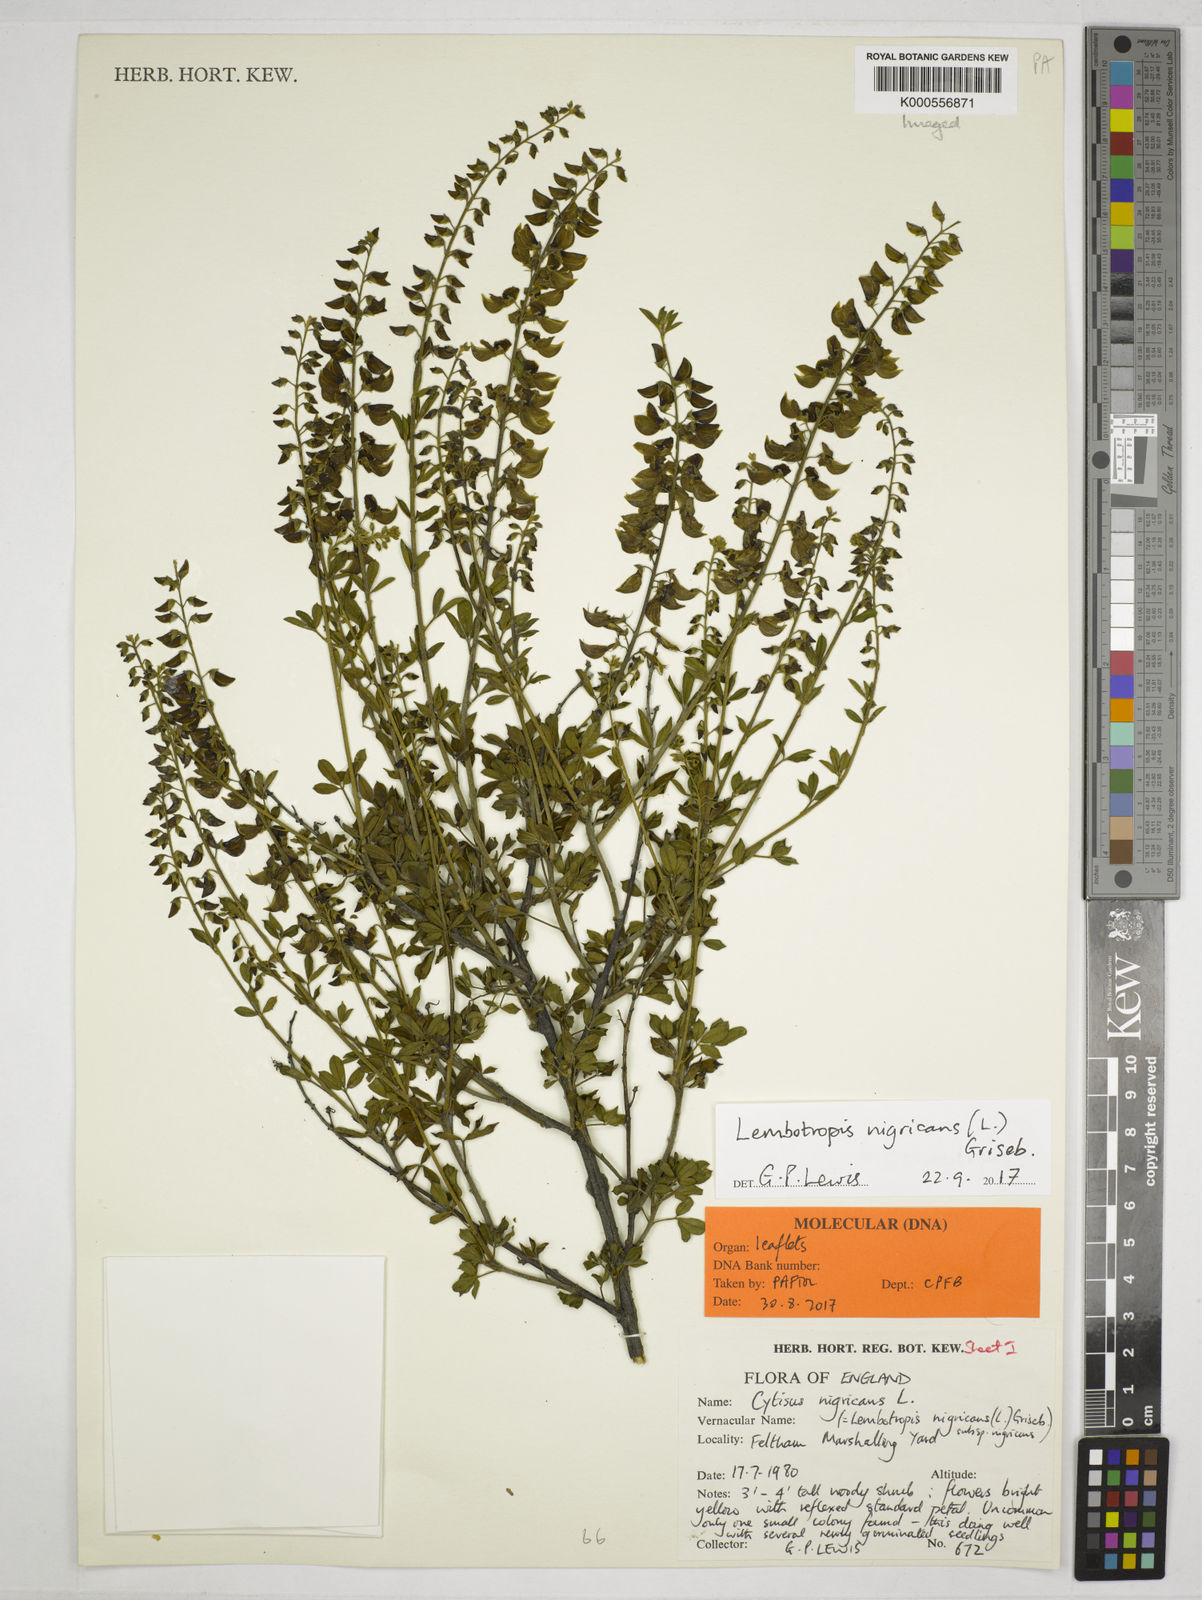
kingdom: Plantae
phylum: Tracheophyta
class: Magnoliopsida
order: Fabales
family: Fabaceae
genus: Cytisus
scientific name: Cytisus nigricans
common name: Black broom
